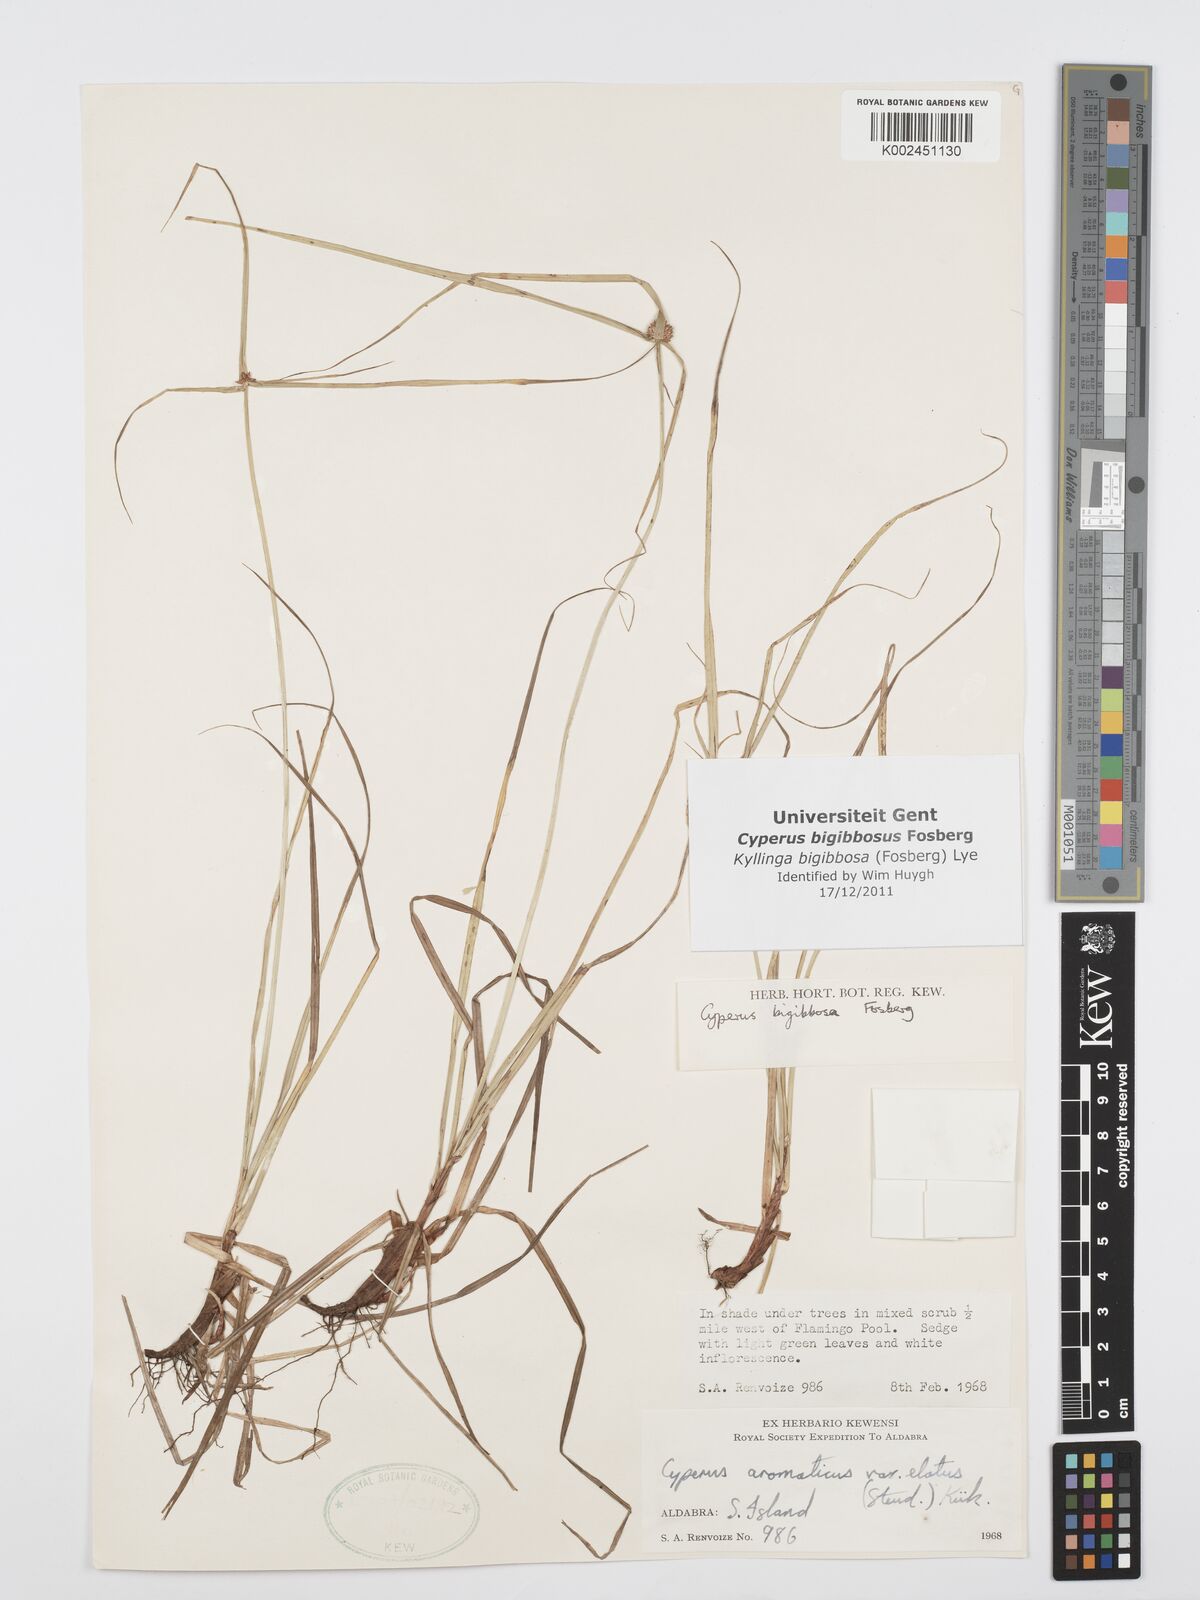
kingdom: Plantae
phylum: Tracheophyta
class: Liliopsida
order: Poales
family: Cyperaceae
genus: Cyperus
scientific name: Cyperus bigibbosa
